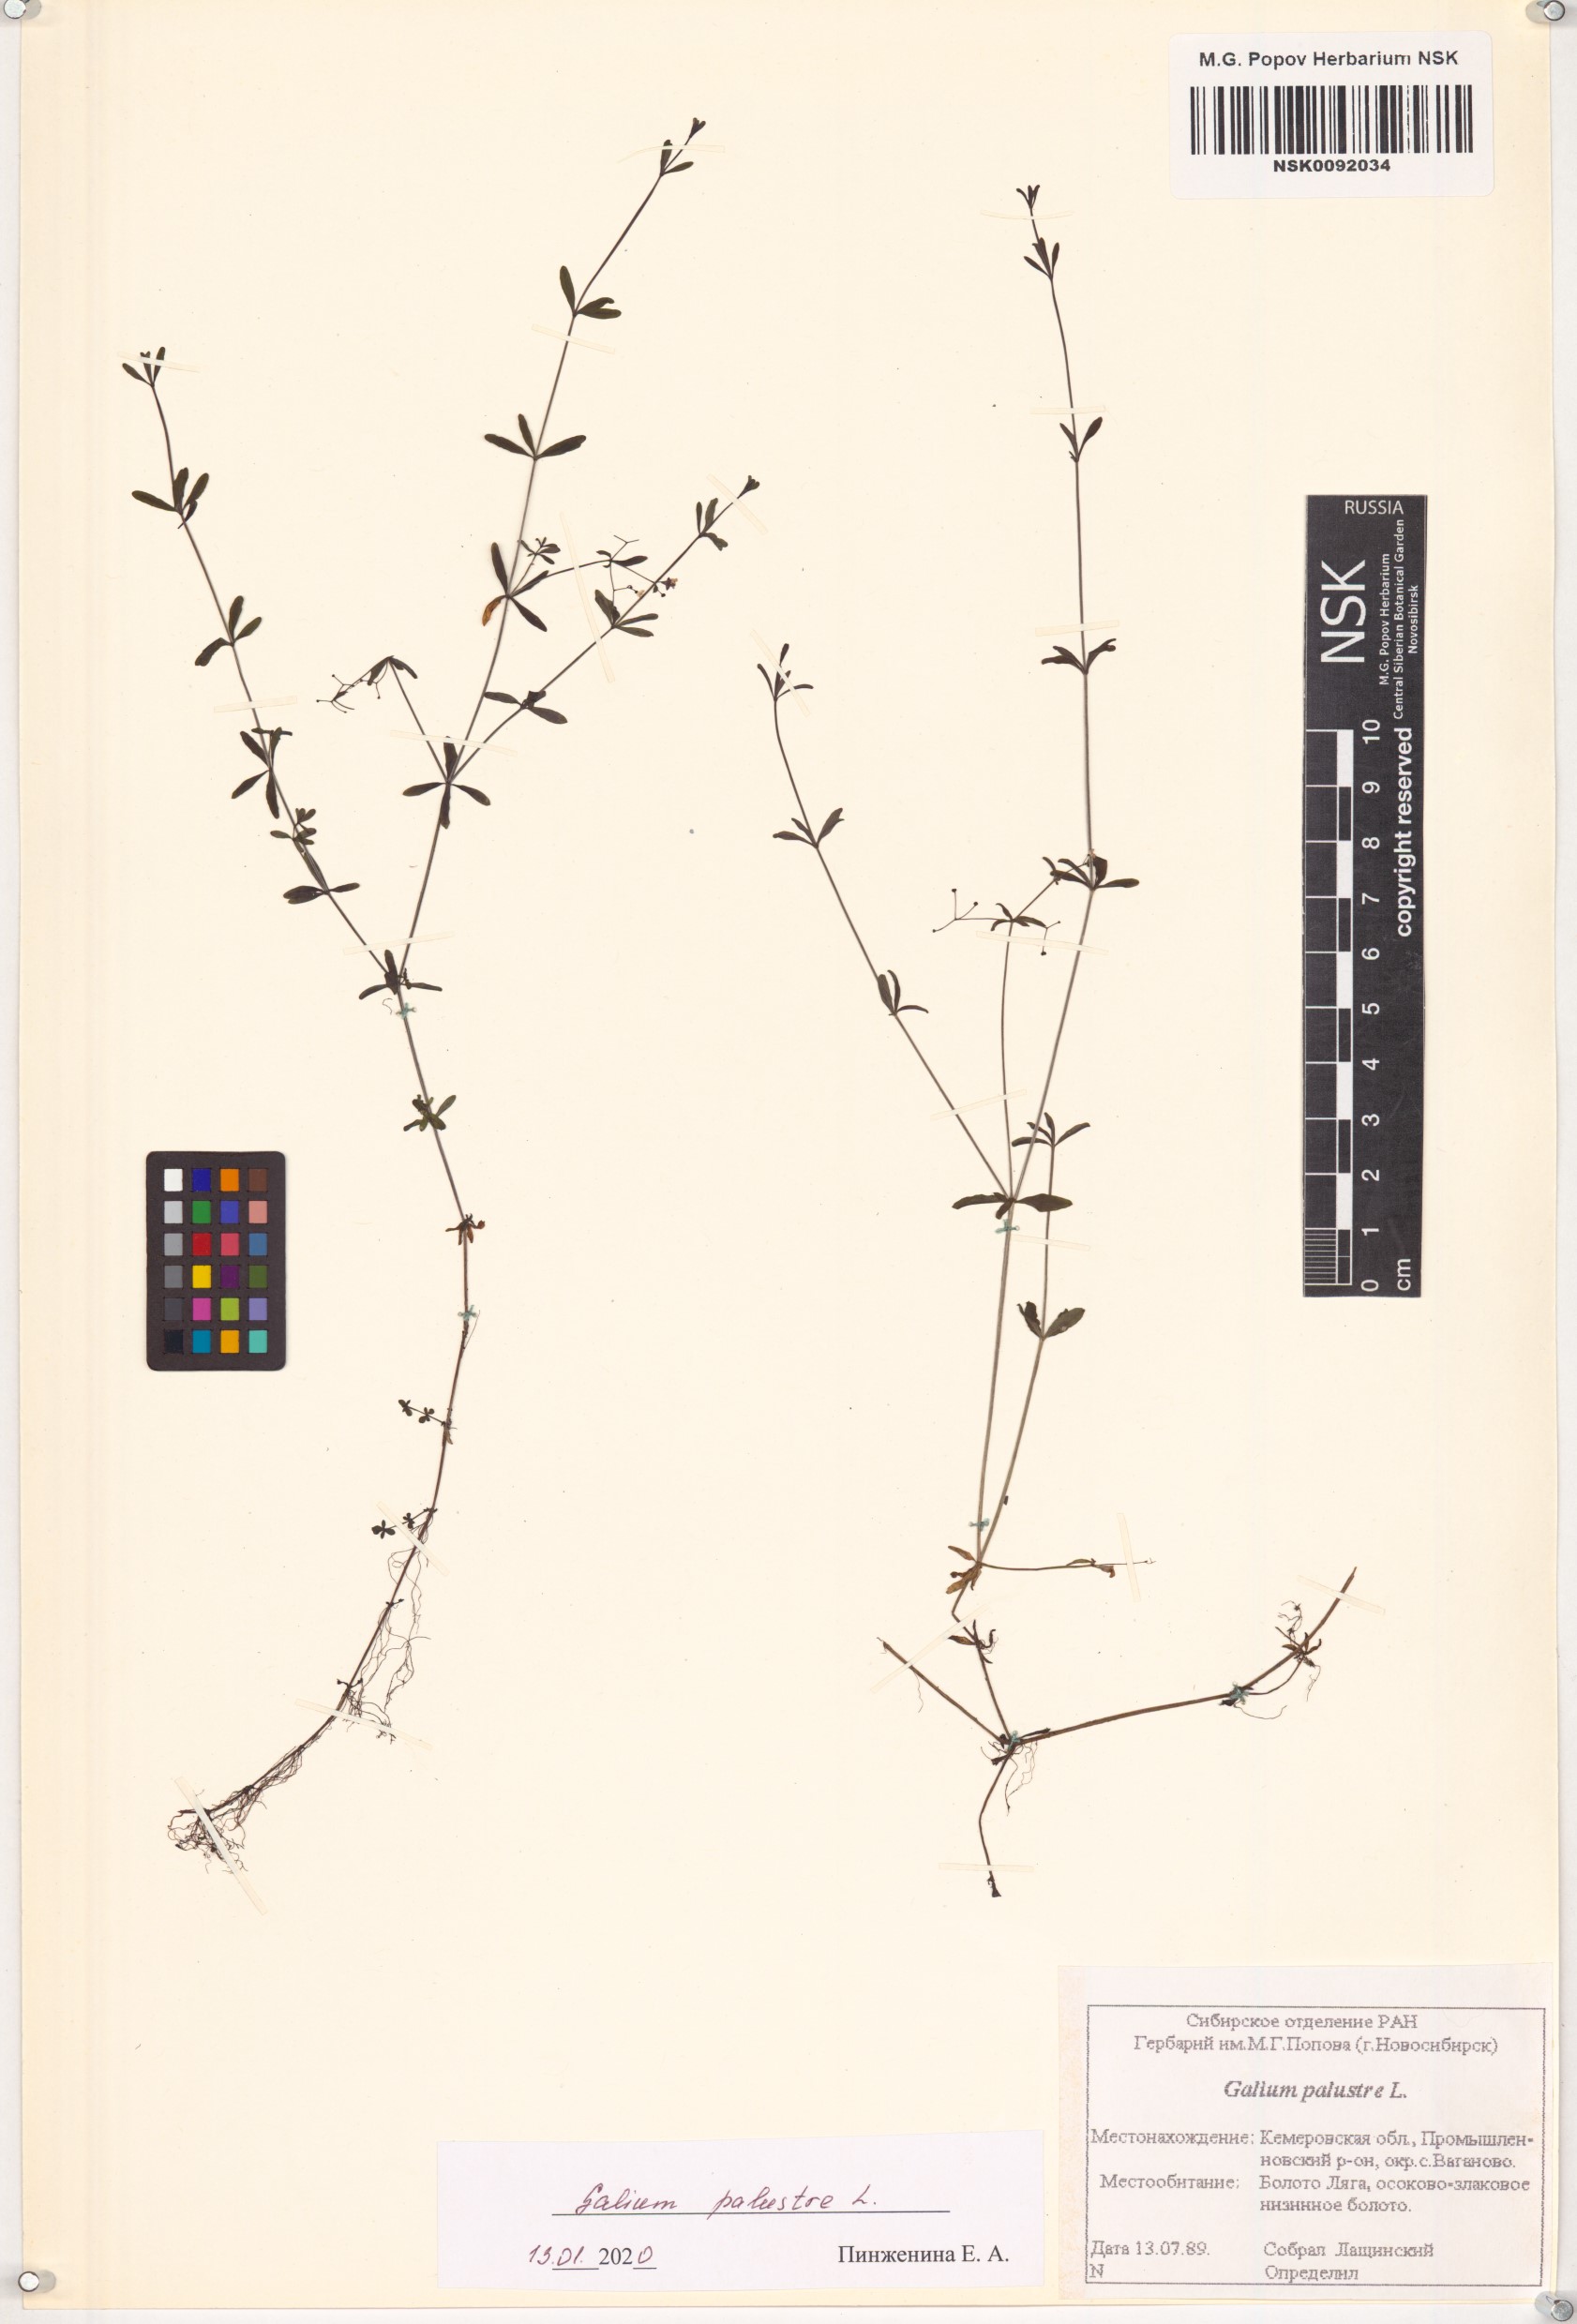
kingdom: Plantae
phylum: Tracheophyta
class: Magnoliopsida
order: Gentianales
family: Rubiaceae
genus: Galium
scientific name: Galium palustre
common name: Common marsh-bedstraw
